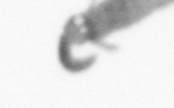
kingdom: Animalia
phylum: Annelida
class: Polychaeta
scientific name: Polychaeta
